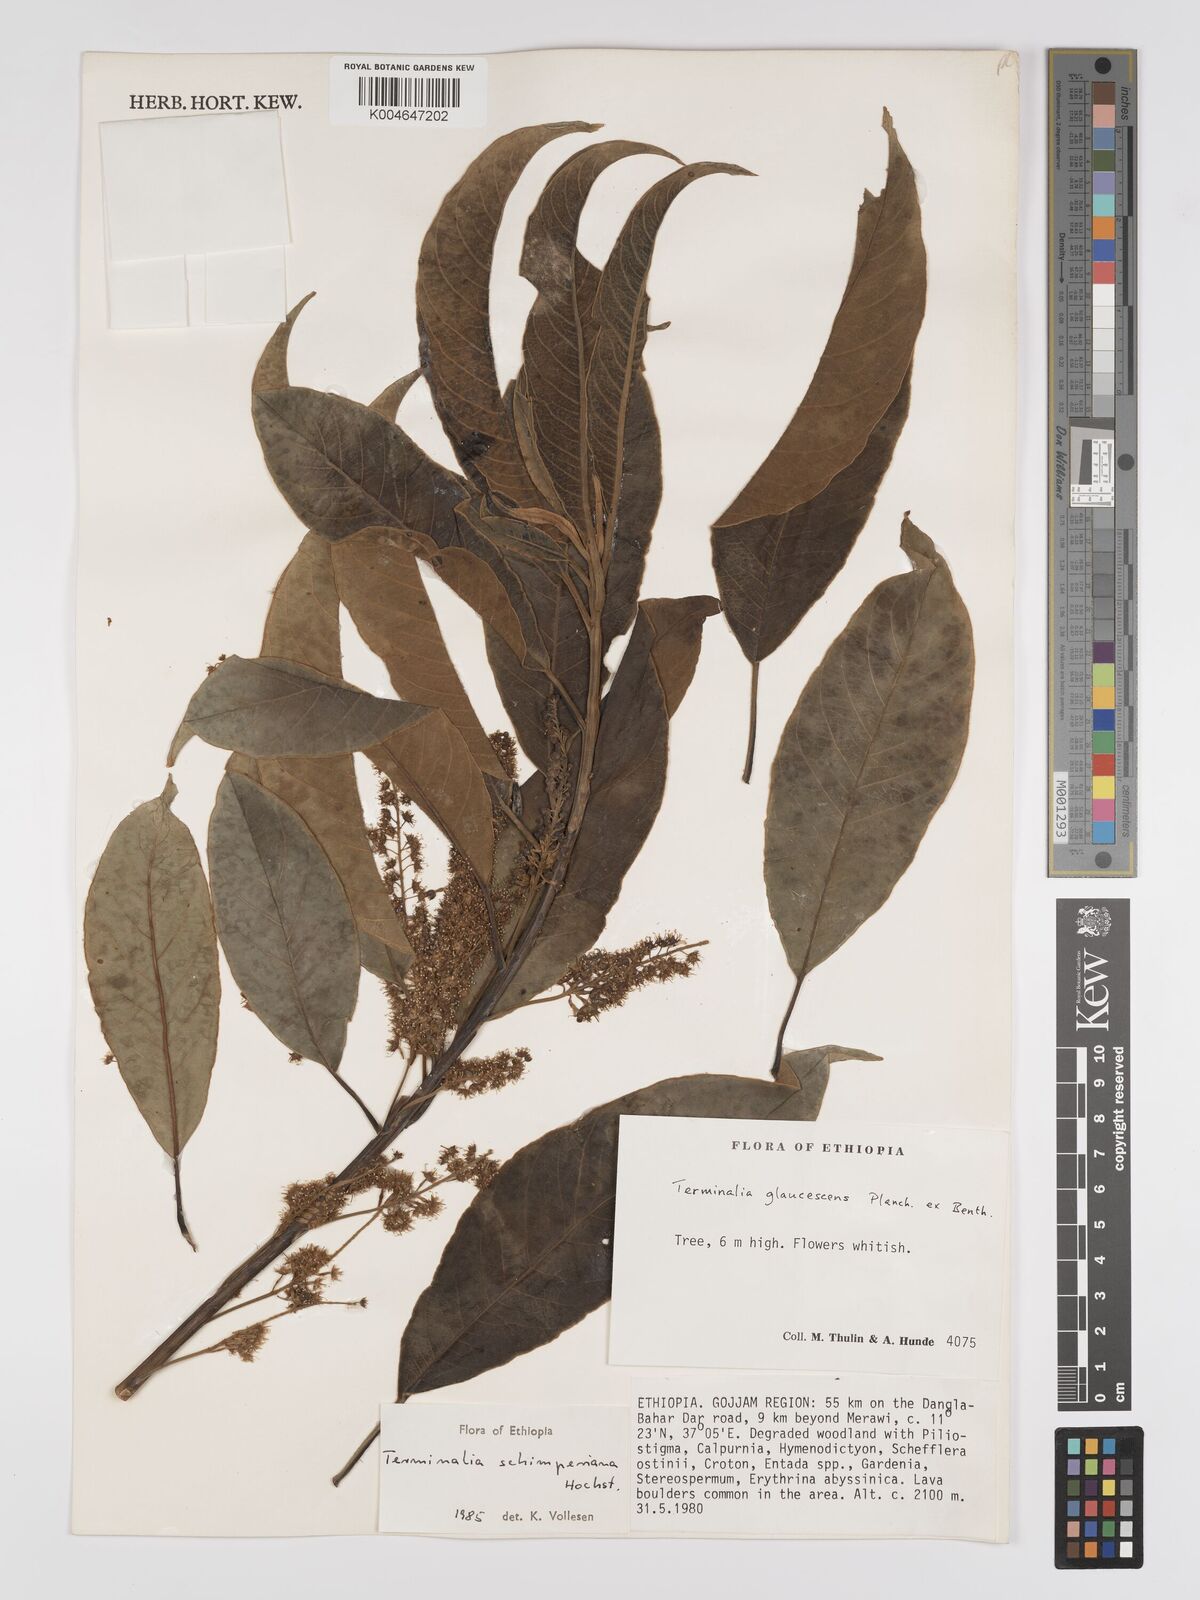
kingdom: Plantae
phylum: Tracheophyta
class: Magnoliopsida
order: Myrtales
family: Combretaceae
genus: Terminalia
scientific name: Terminalia schimperiana
